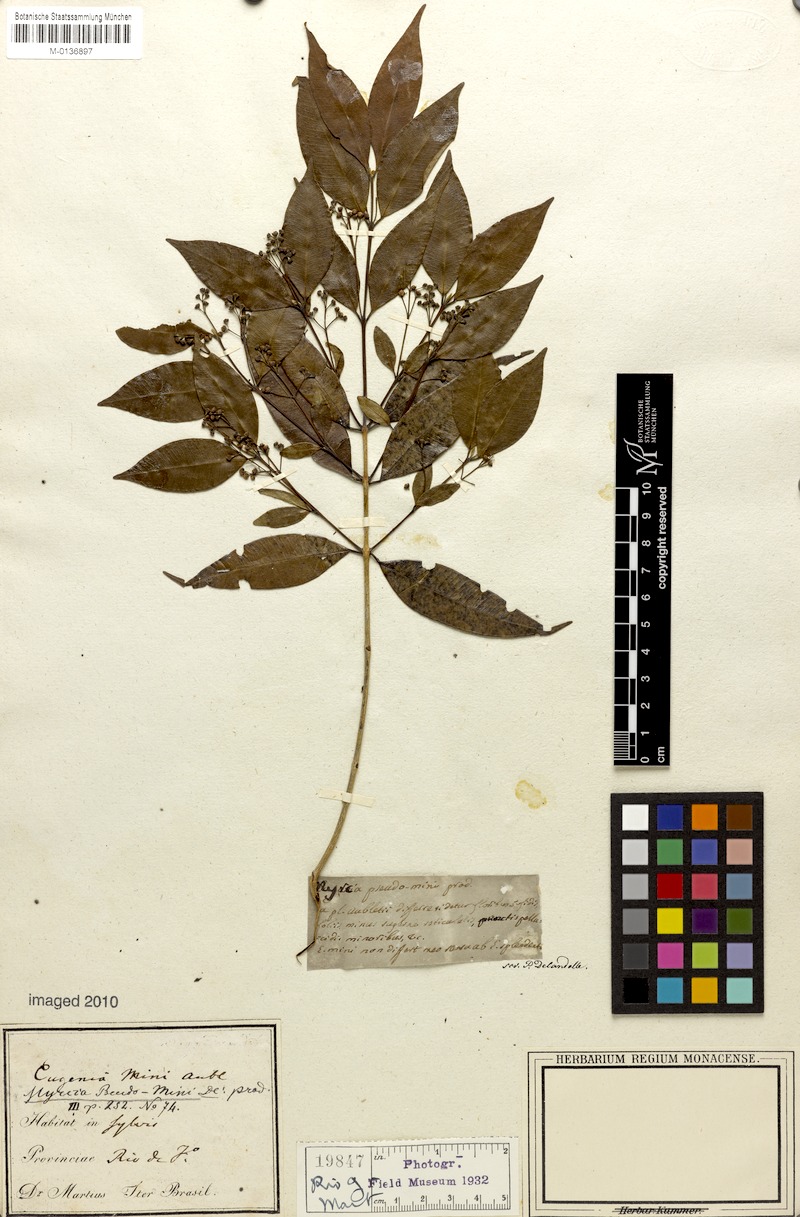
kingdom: Plantae
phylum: Tracheophyta
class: Magnoliopsida
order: Myrtales
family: Myrtaceae
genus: Myrcia
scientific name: Myrcia splendens
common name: Surinam cherry
